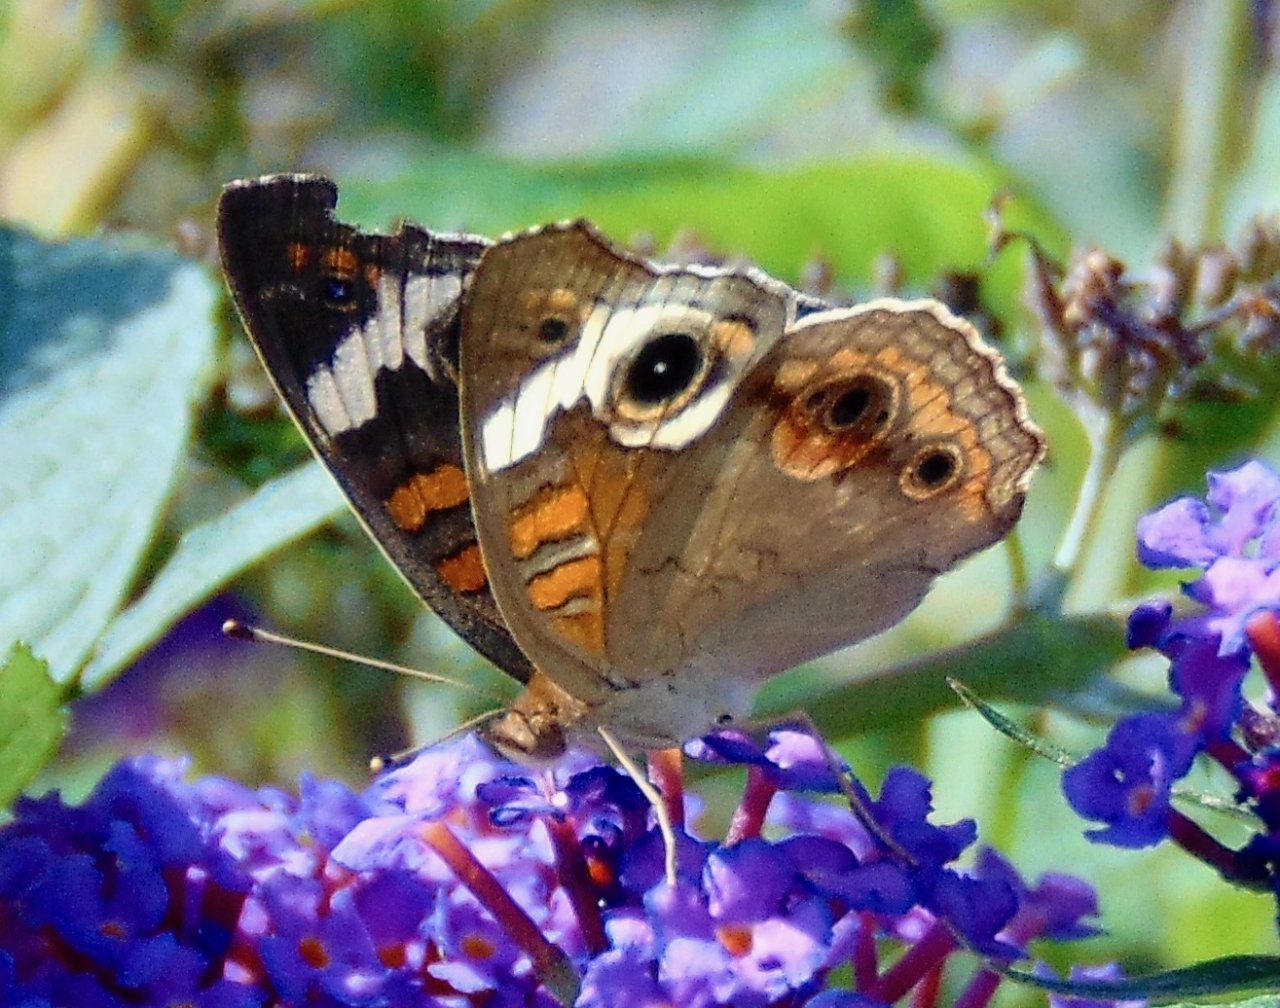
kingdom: Animalia
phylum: Arthropoda
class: Insecta
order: Lepidoptera
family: Nymphalidae
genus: Junonia
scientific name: Junonia coenia
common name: Common Buckeye
